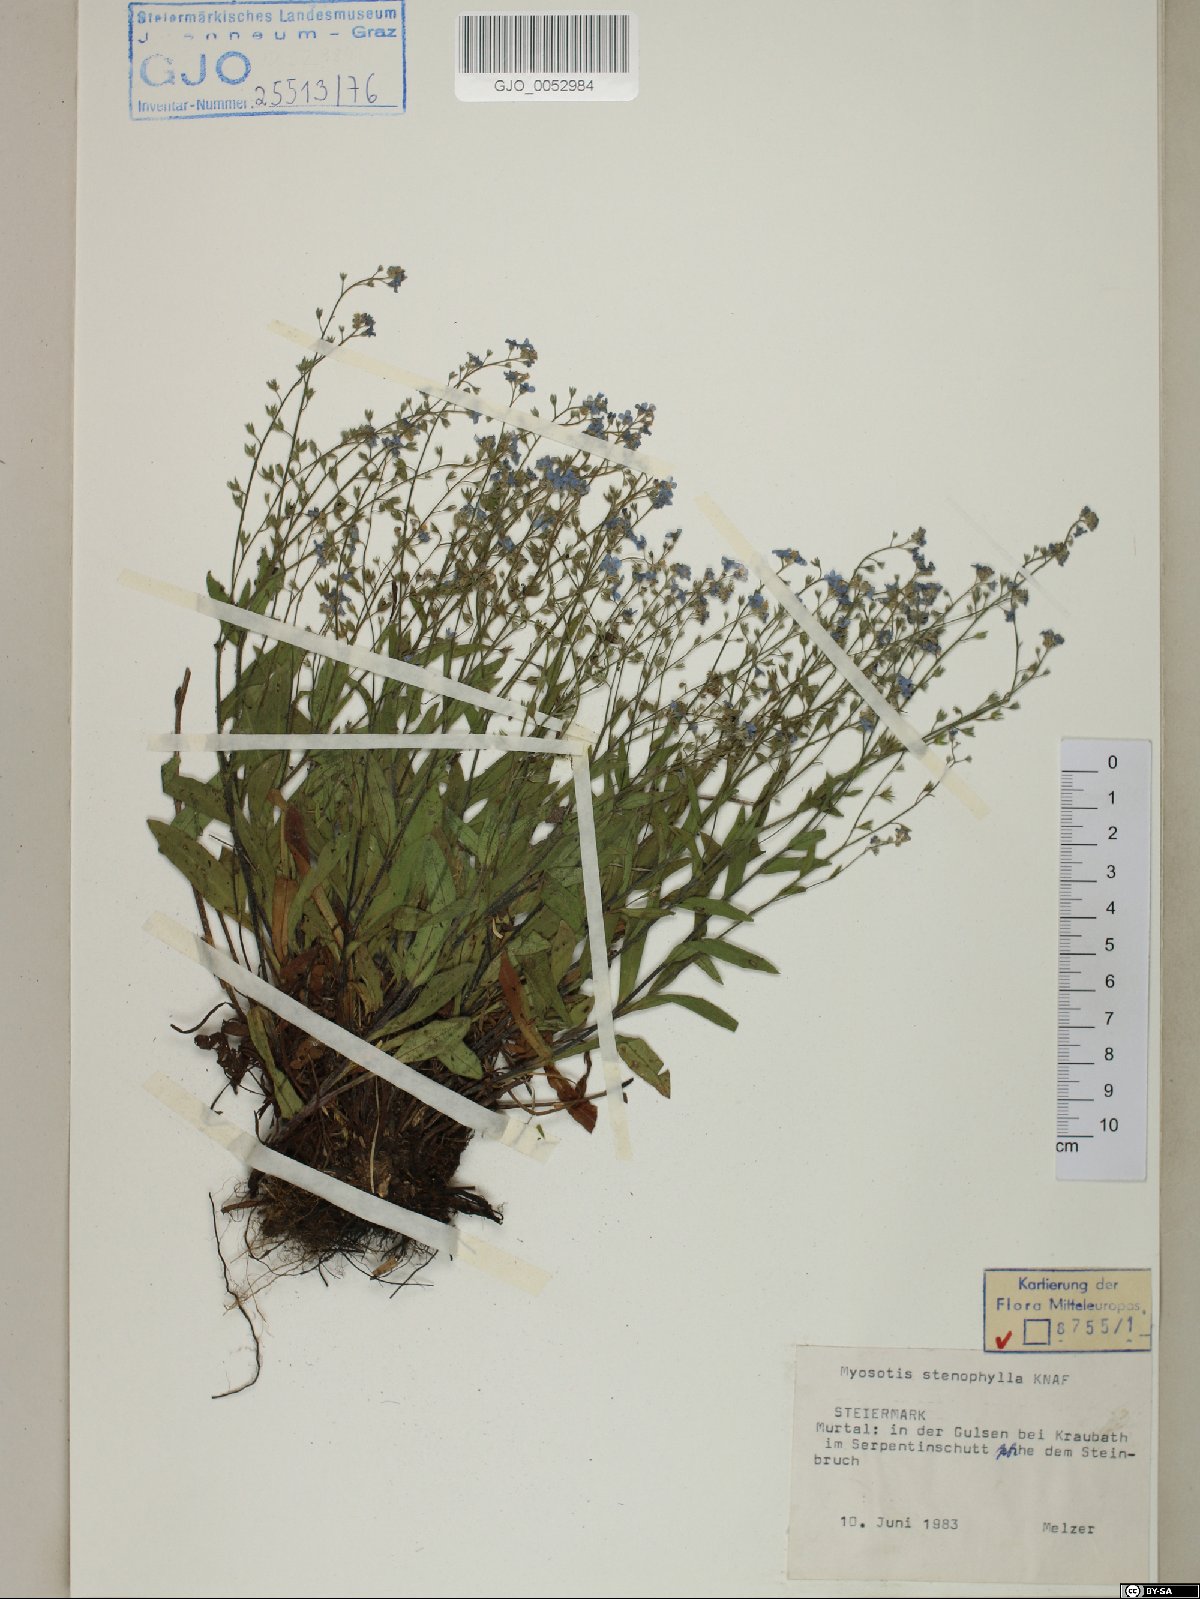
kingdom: Plantae
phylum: Tracheophyta
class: Magnoliopsida
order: Boraginales
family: Boraginaceae
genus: Myosotis
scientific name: Myosotis stenophylla
